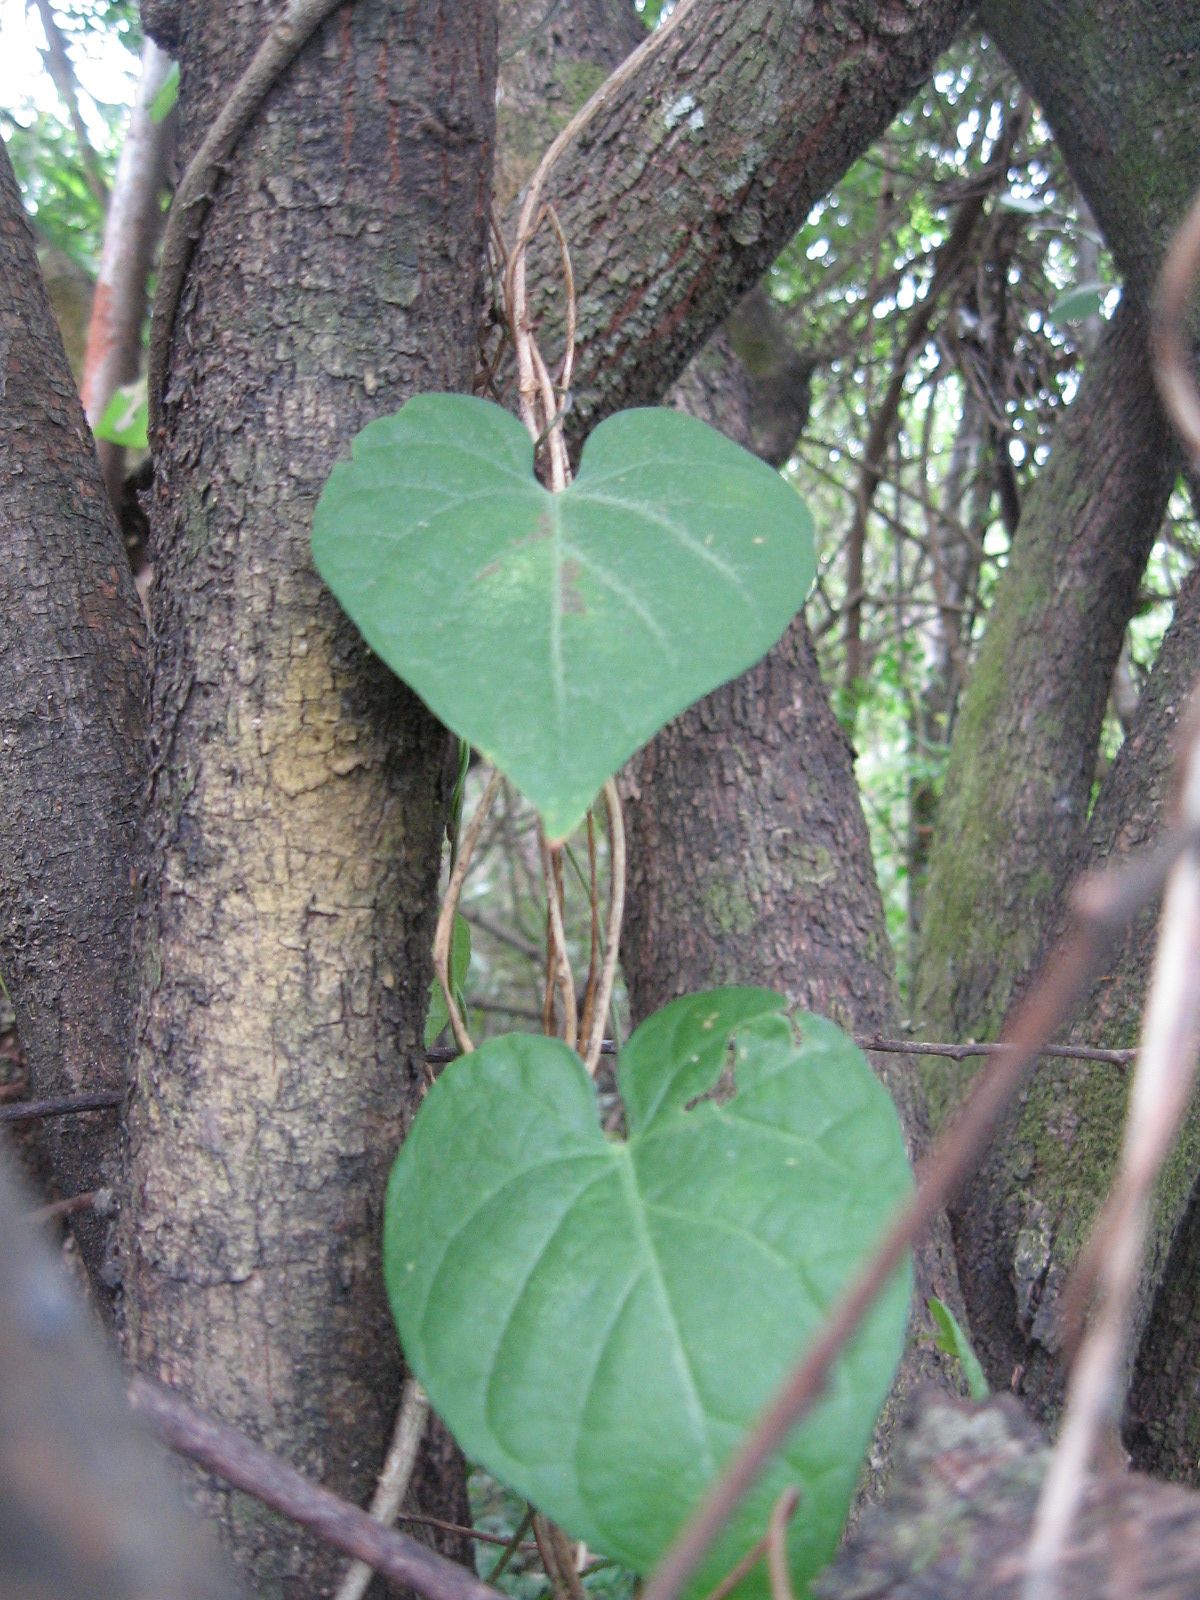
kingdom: Plantae
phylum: Tracheophyta
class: Magnoliopsida
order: Solanales
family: Solanaceae
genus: Solanum
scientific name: Solanum hazenii
